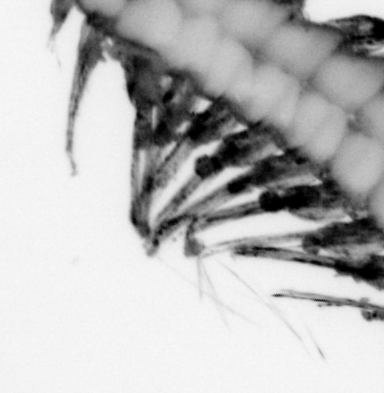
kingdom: Animalia
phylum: Annelida
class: Polychaeta
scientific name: Polychaeta
